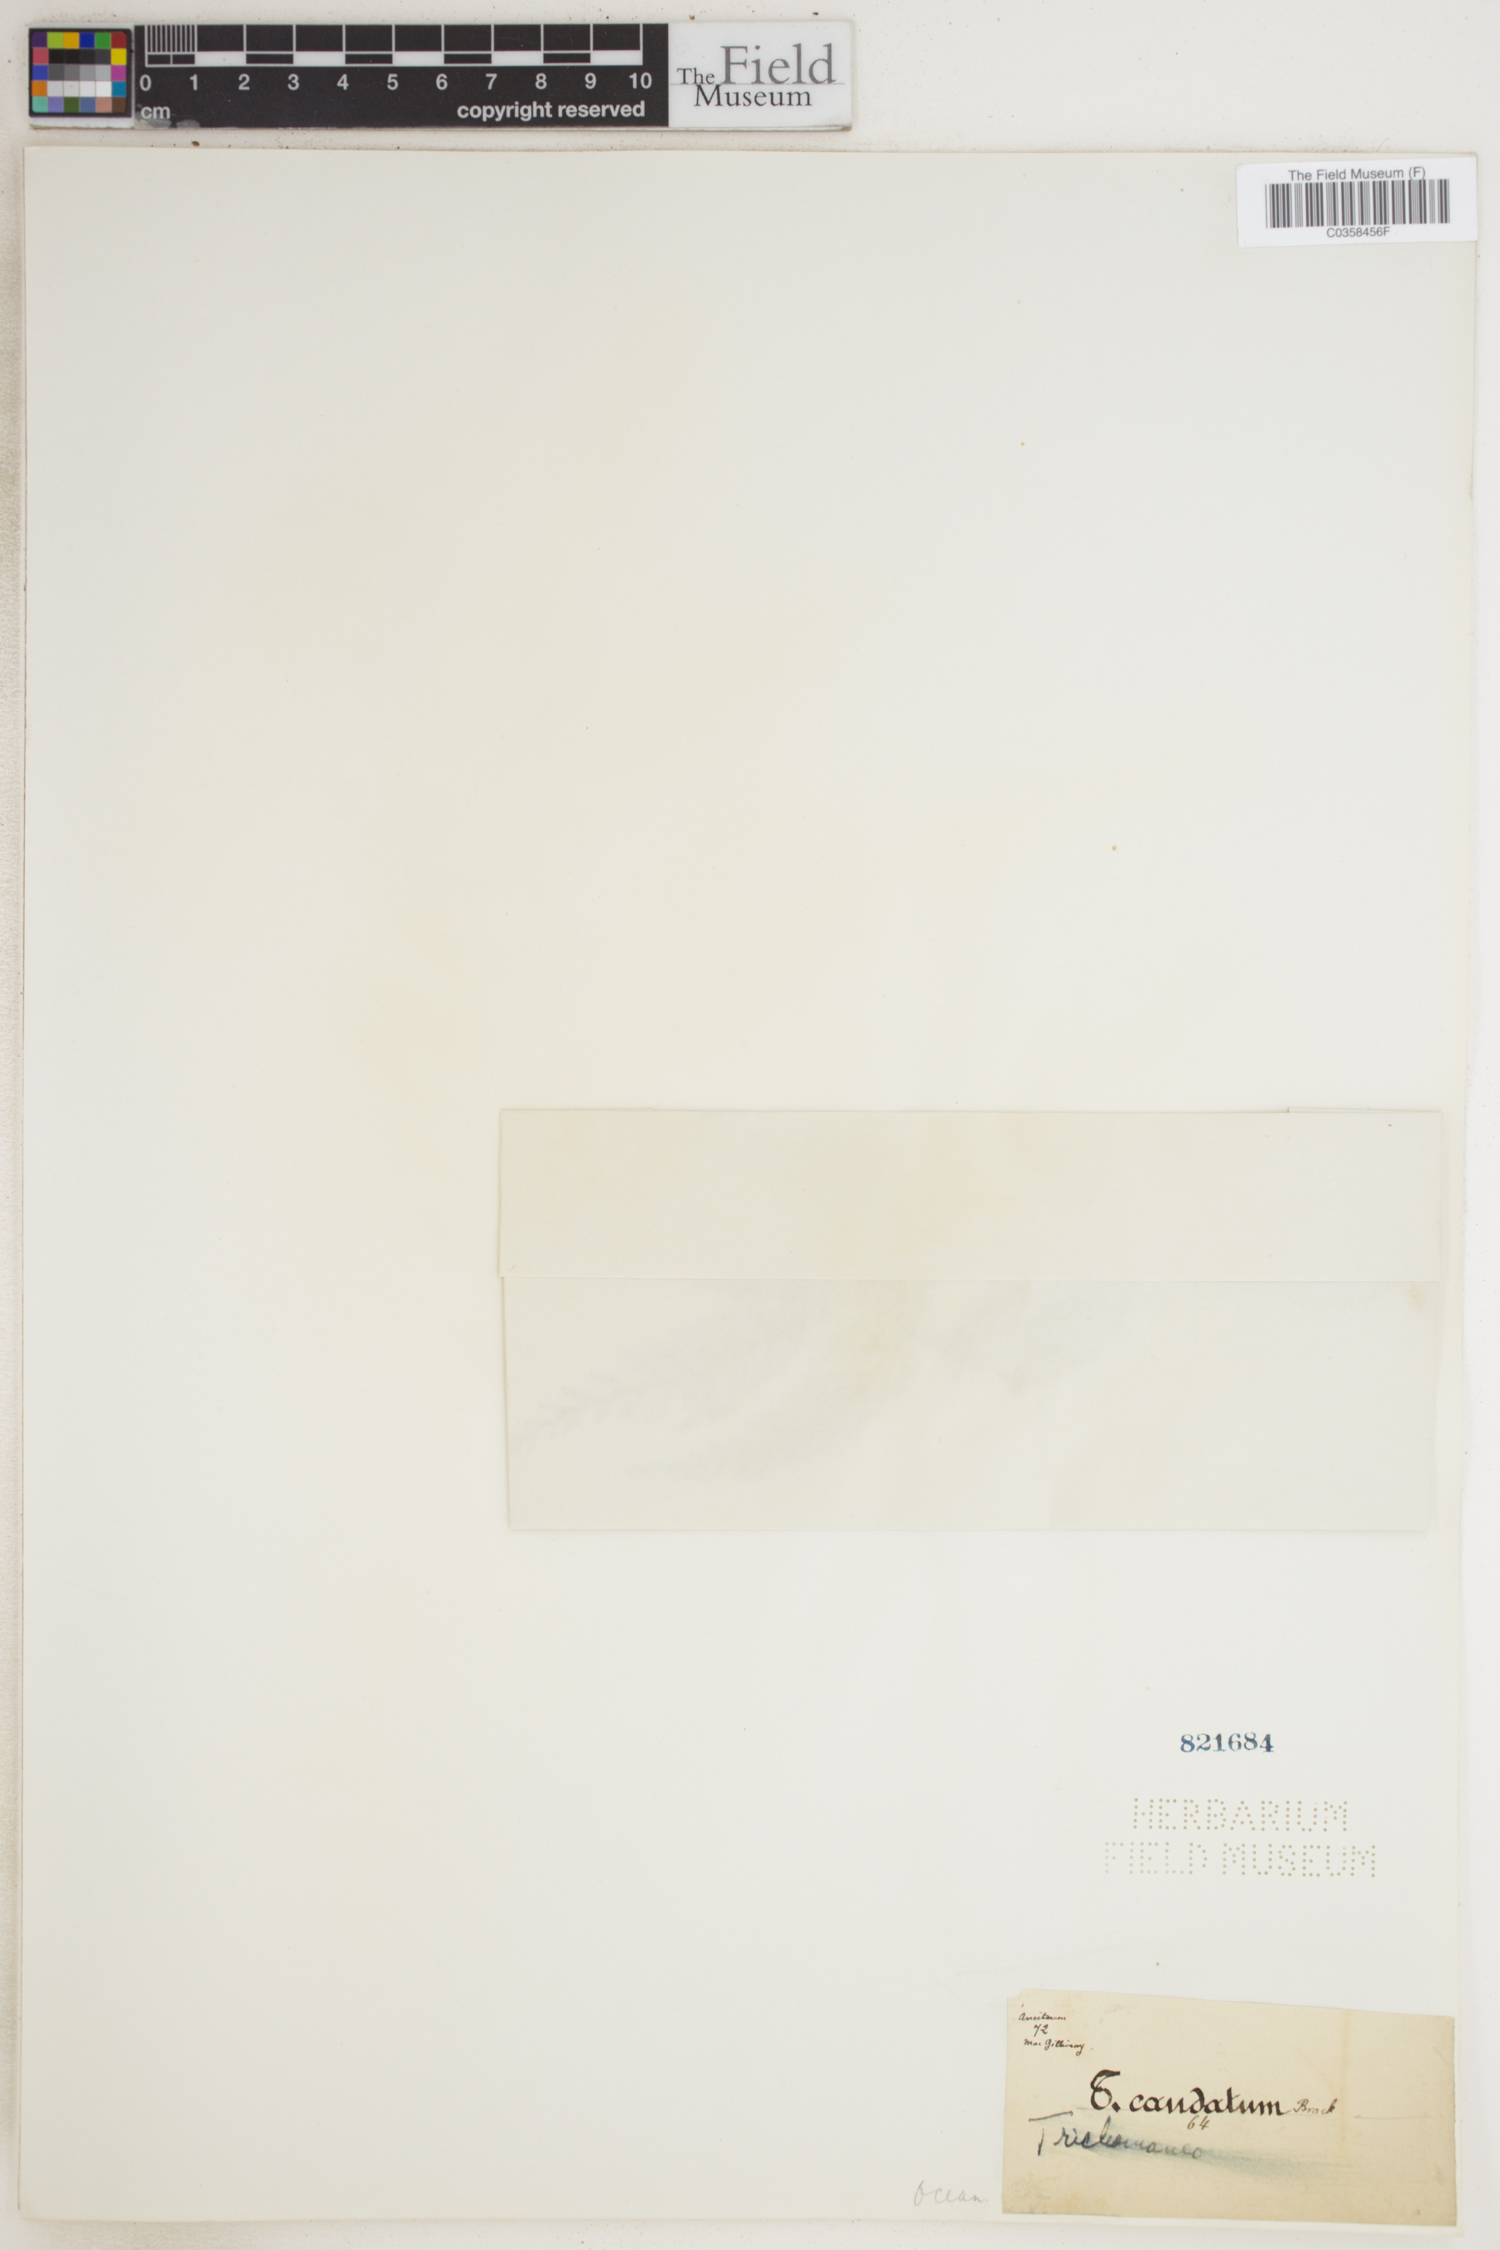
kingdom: Plantae
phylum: Tracheophyta
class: Polypodiopsida
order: Hymenophyllales
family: Hymenophyllaceae
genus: Abrodictyum
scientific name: Abrodictyum caudatum
